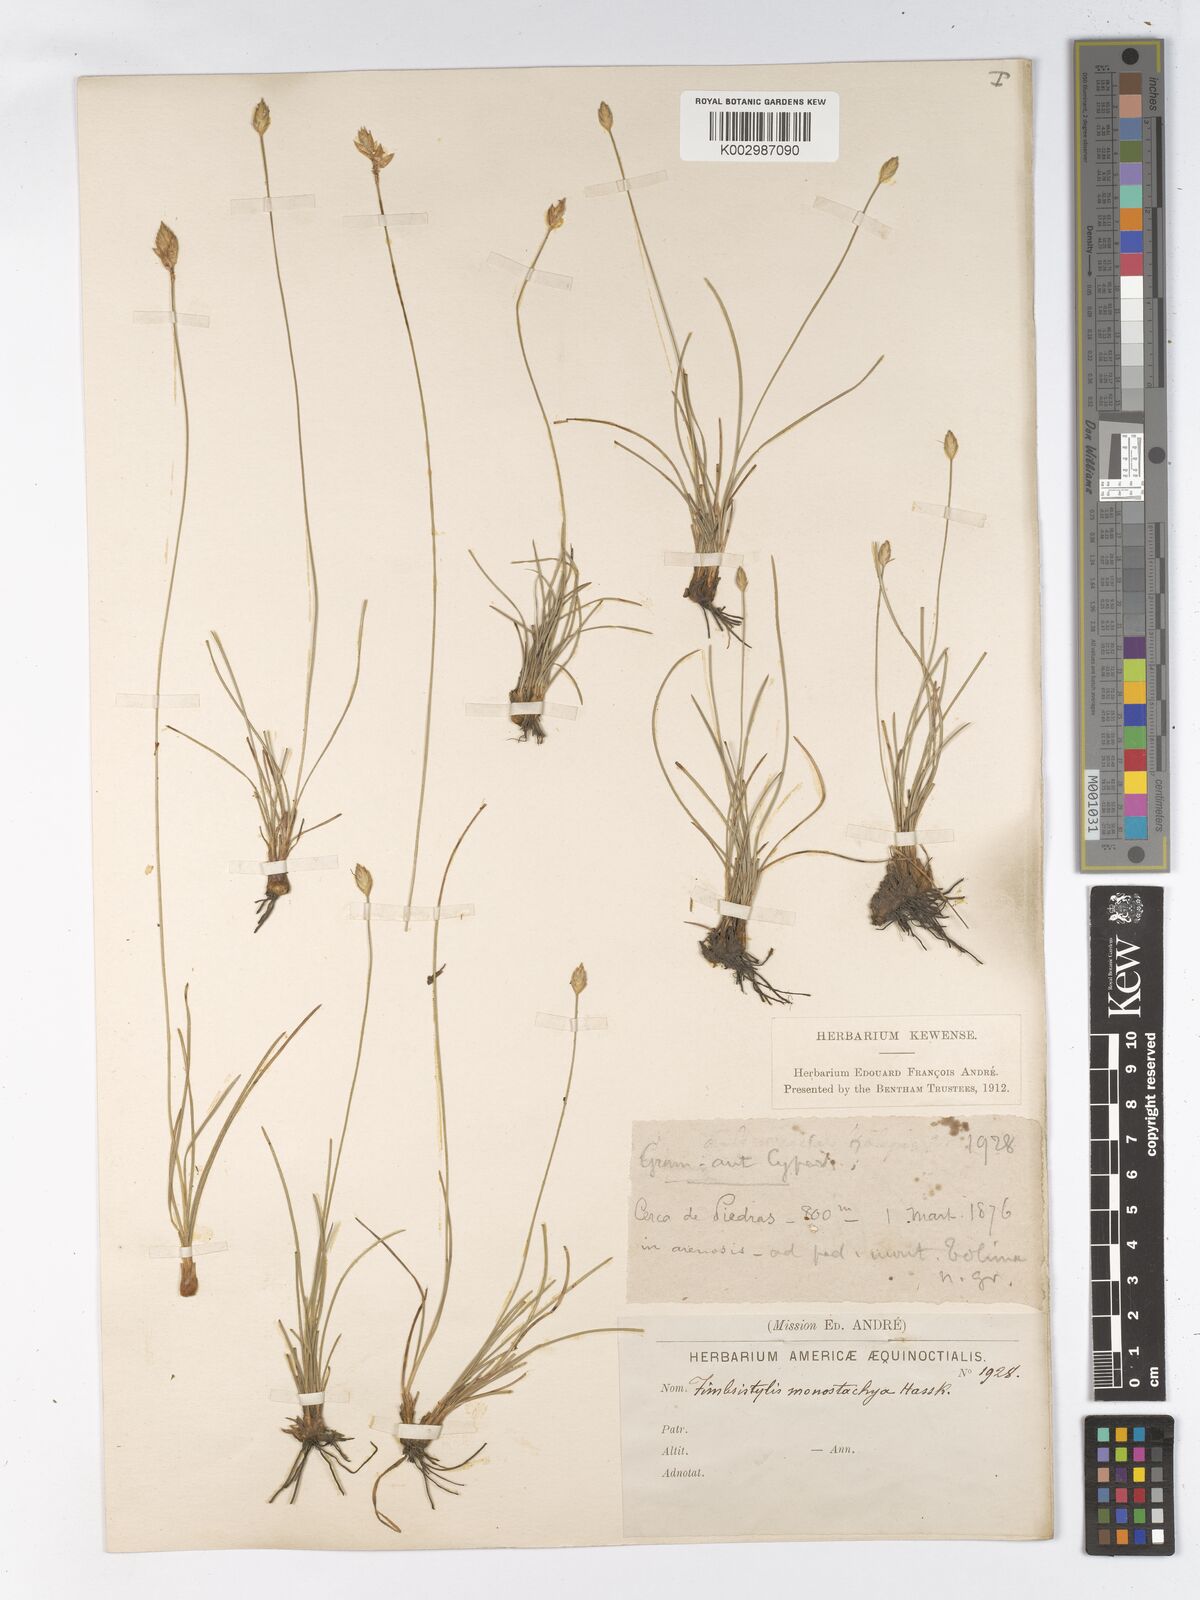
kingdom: Plantae
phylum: Tracheophyta
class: Liliopsida
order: Poales
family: Cyperaceae
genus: Abildgaardia
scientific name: Abildgaardia ovata
